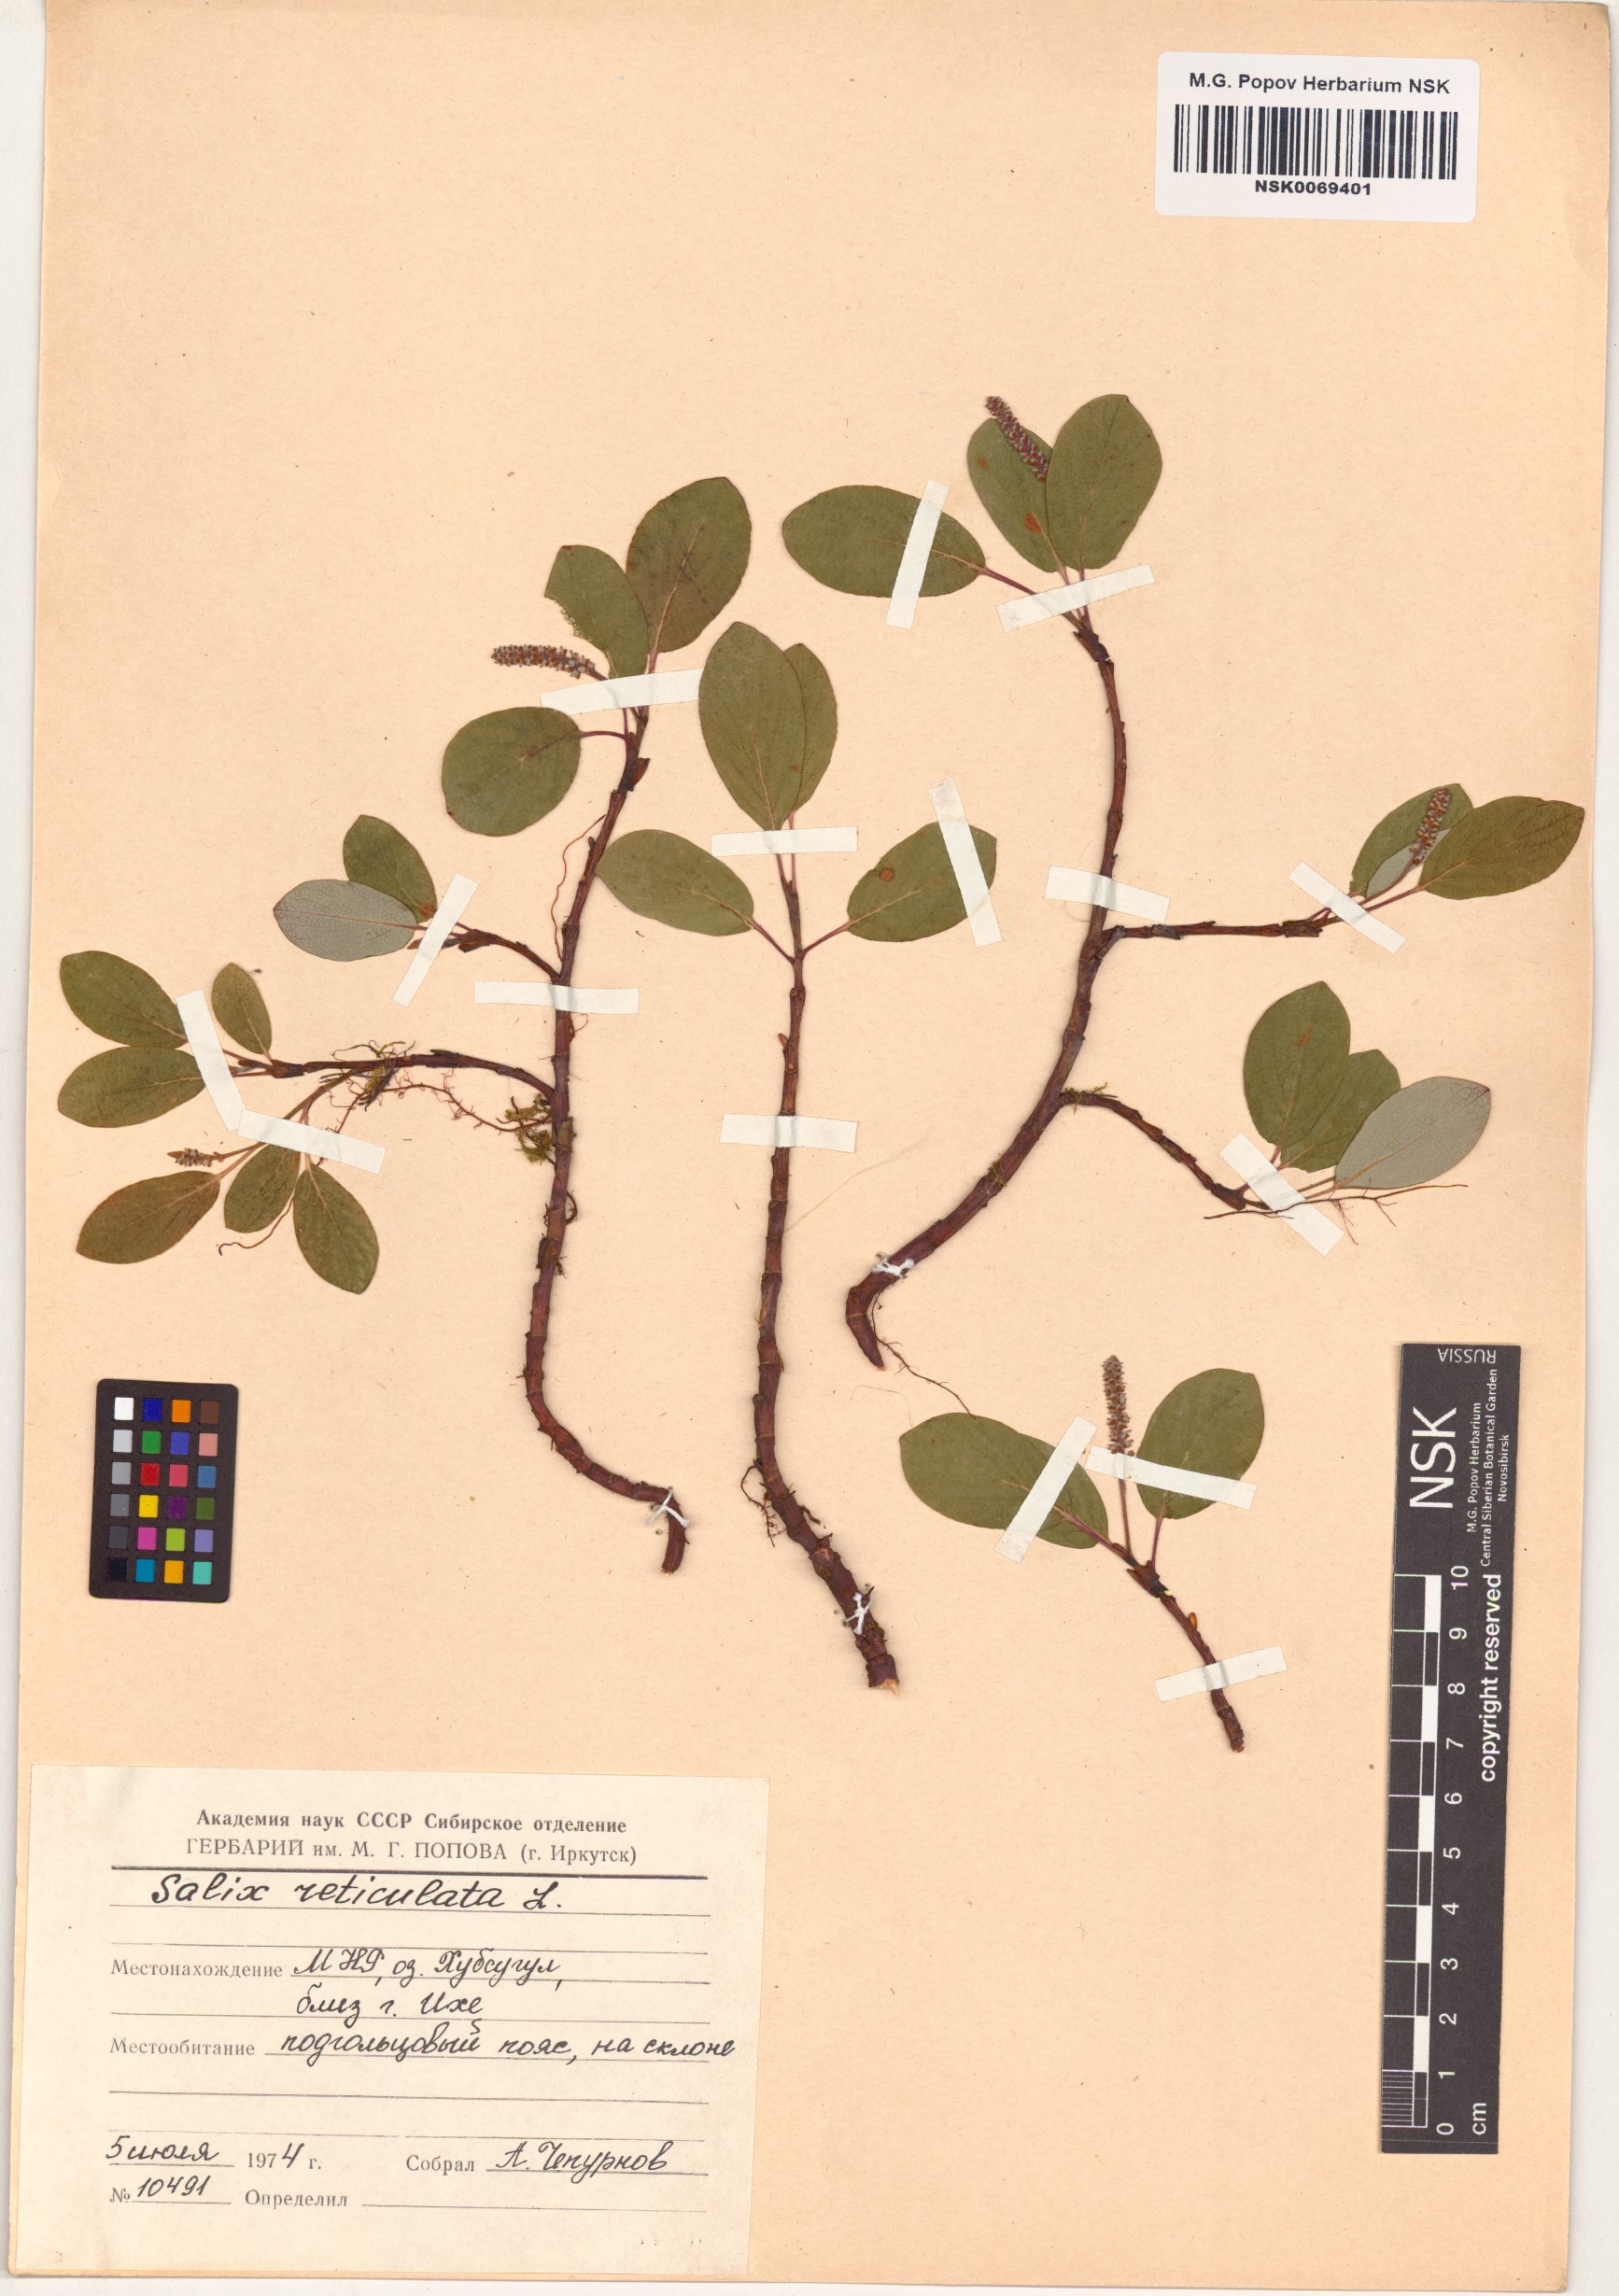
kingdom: Plantae
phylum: Tracheophyta
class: Magnoliopsida
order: Malpighiales
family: Salicaceae
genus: Salix
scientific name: Salix reticulata
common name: Net-leaved willow
